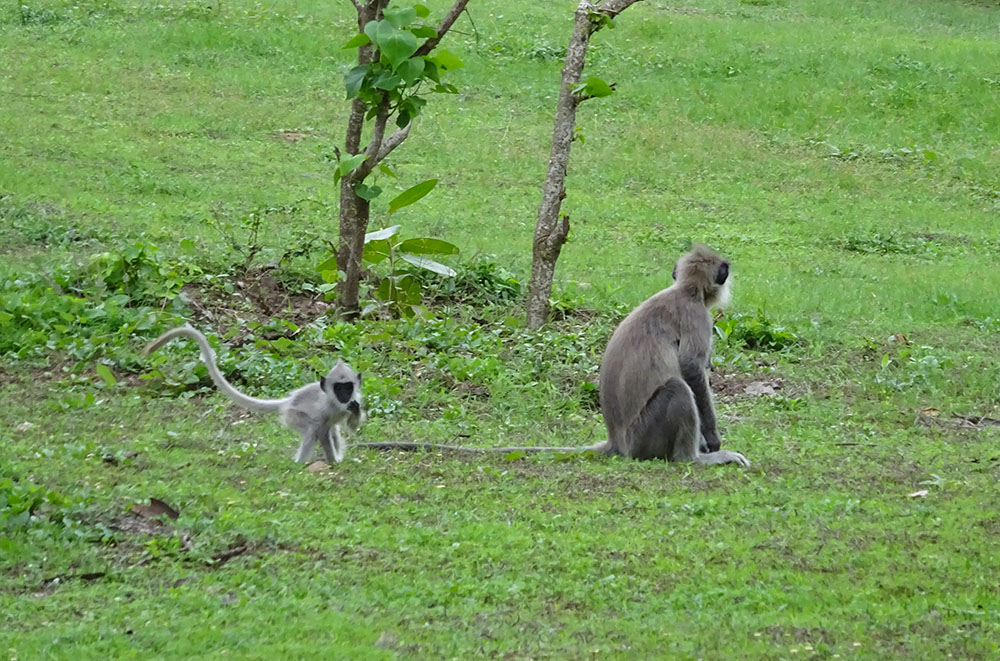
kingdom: Animalia
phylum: Chordata
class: Mammalia
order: Primates
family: Cercopithecidae
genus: Semnopithecus
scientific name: Semnopithecus priam
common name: Tufted gray langur
